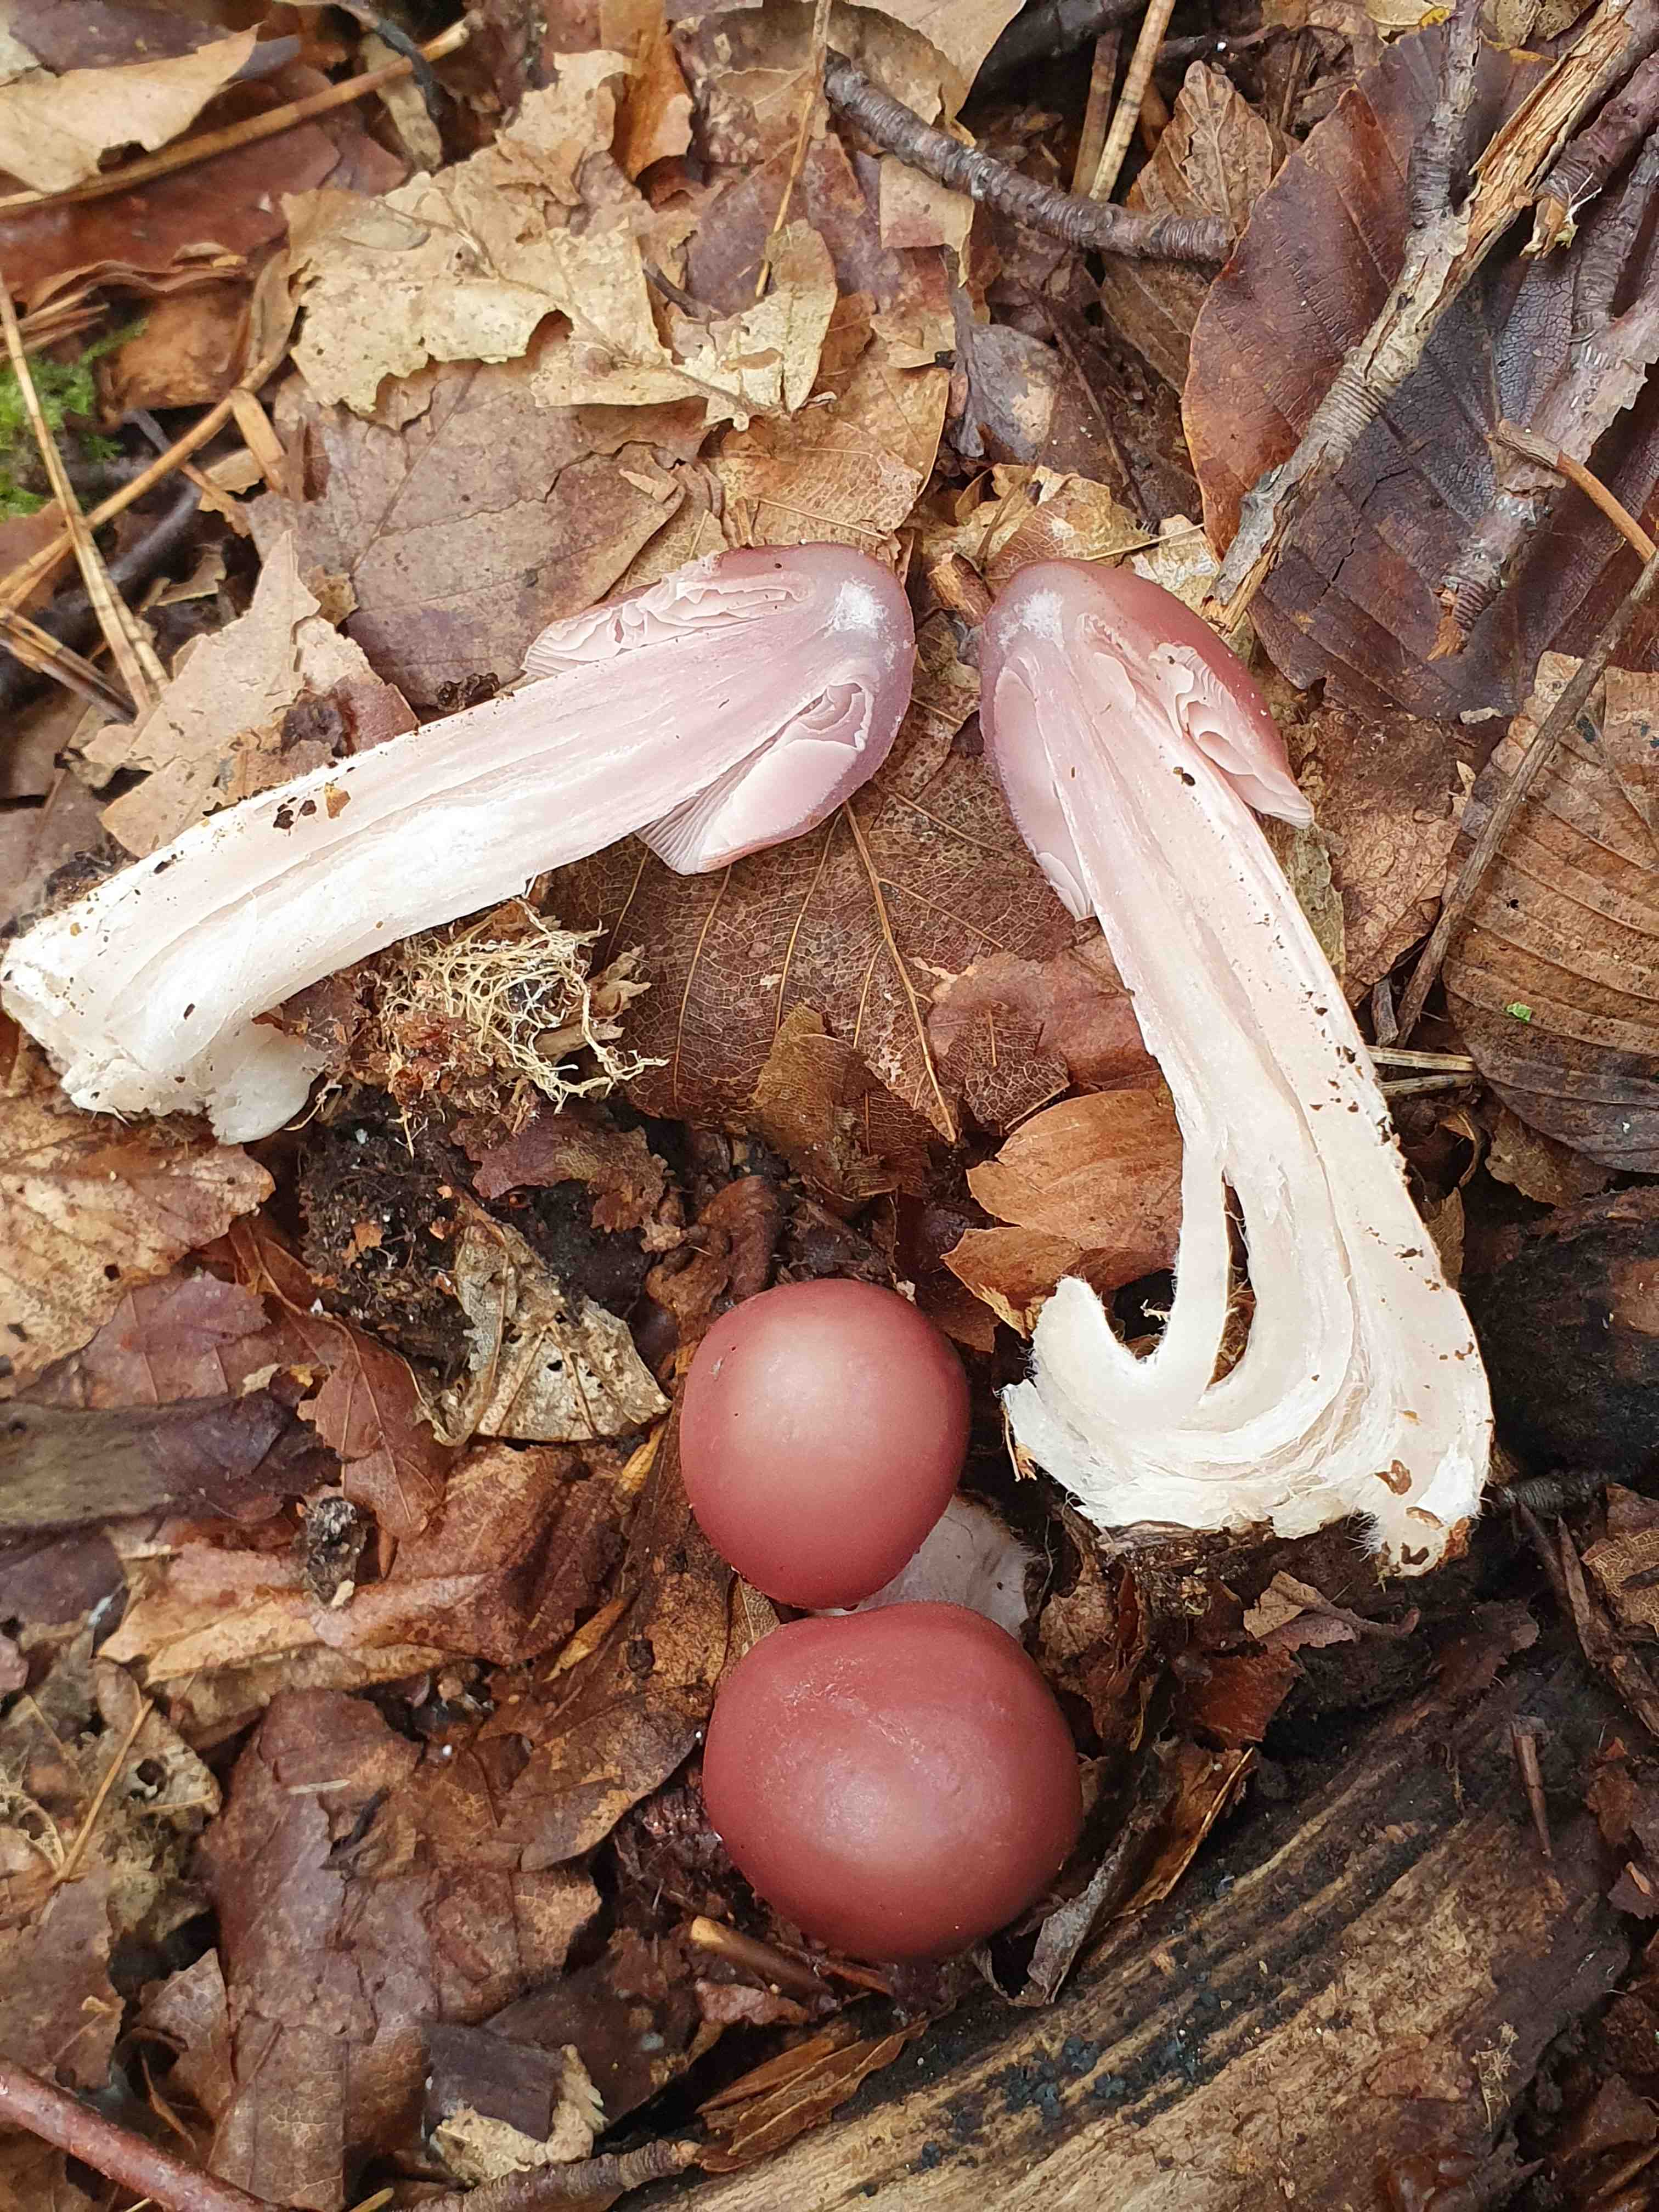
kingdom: Fungi
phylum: Basidiomycota
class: Agaricomycetes
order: Agaricales
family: Mycenaceae
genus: Mycena
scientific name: Mycena rosea
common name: rosa huesvamp
